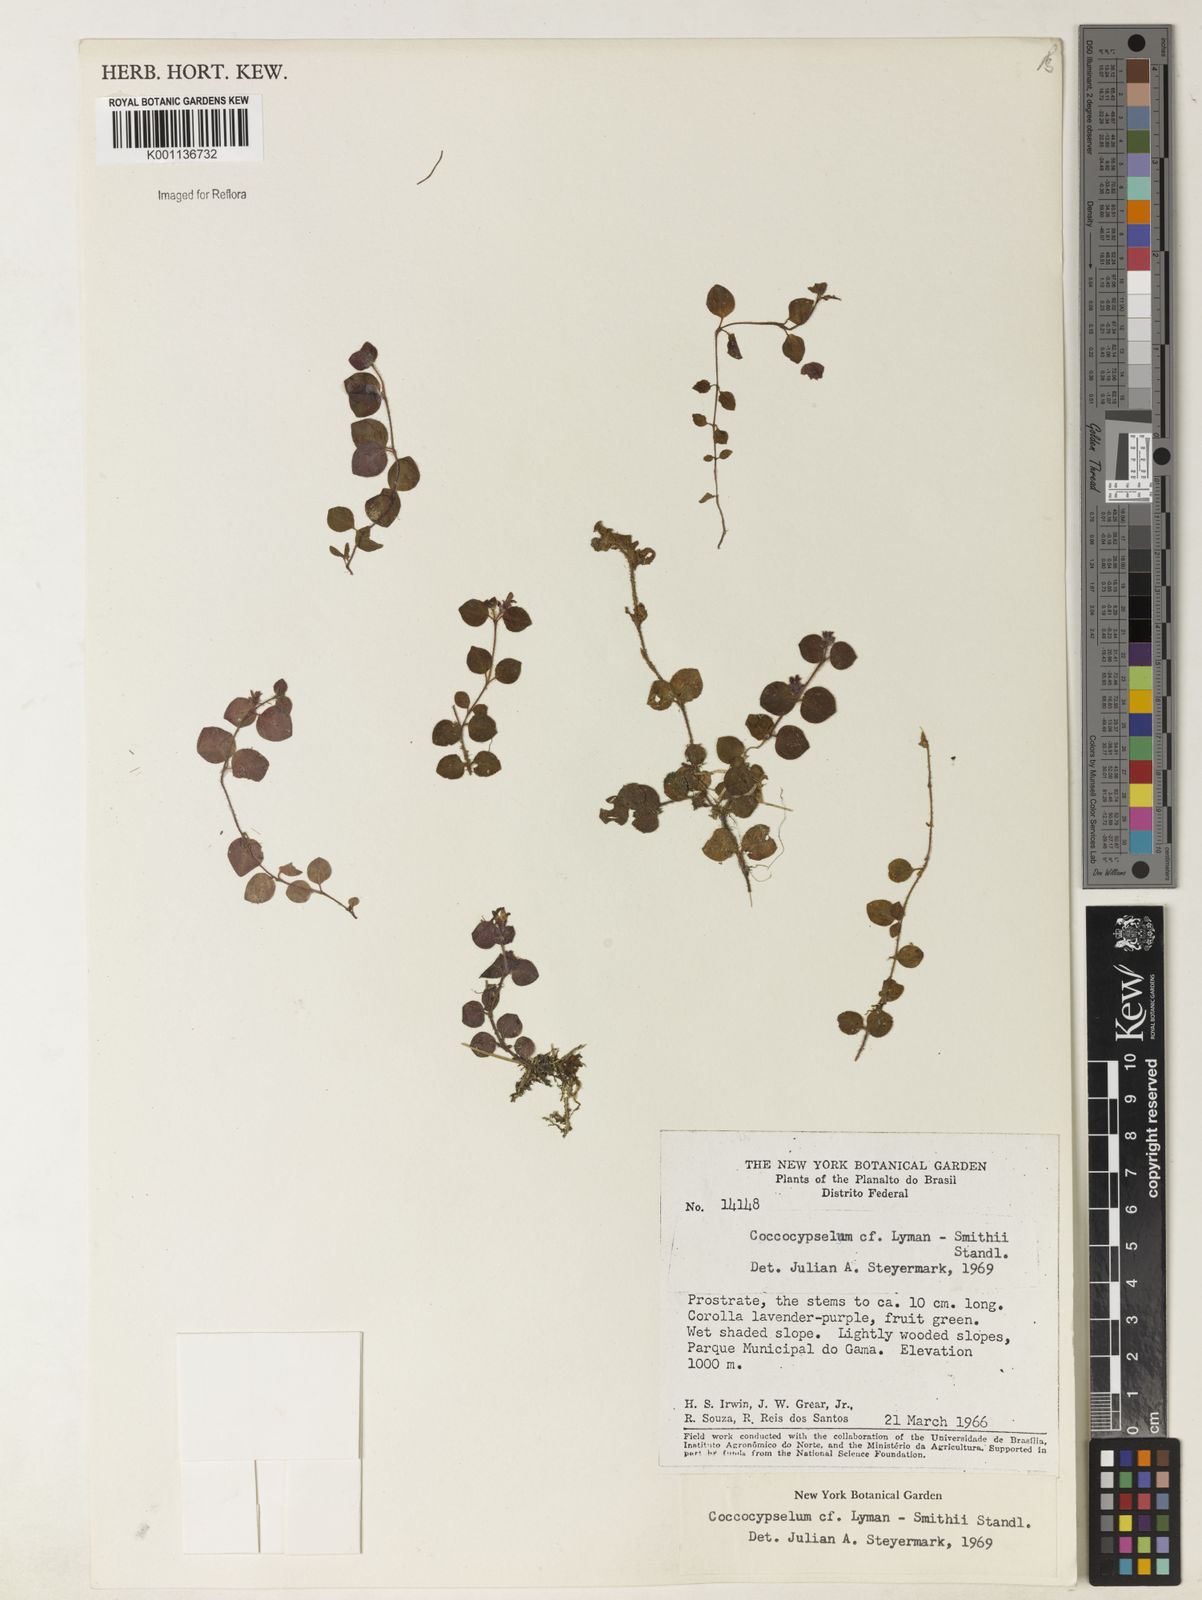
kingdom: Plantae
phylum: Tracheophyta
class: Magnoliopsida
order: Gentianales
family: Rubiaceae
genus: Coccocypselum
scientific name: Coccocypselum lymansmithii
